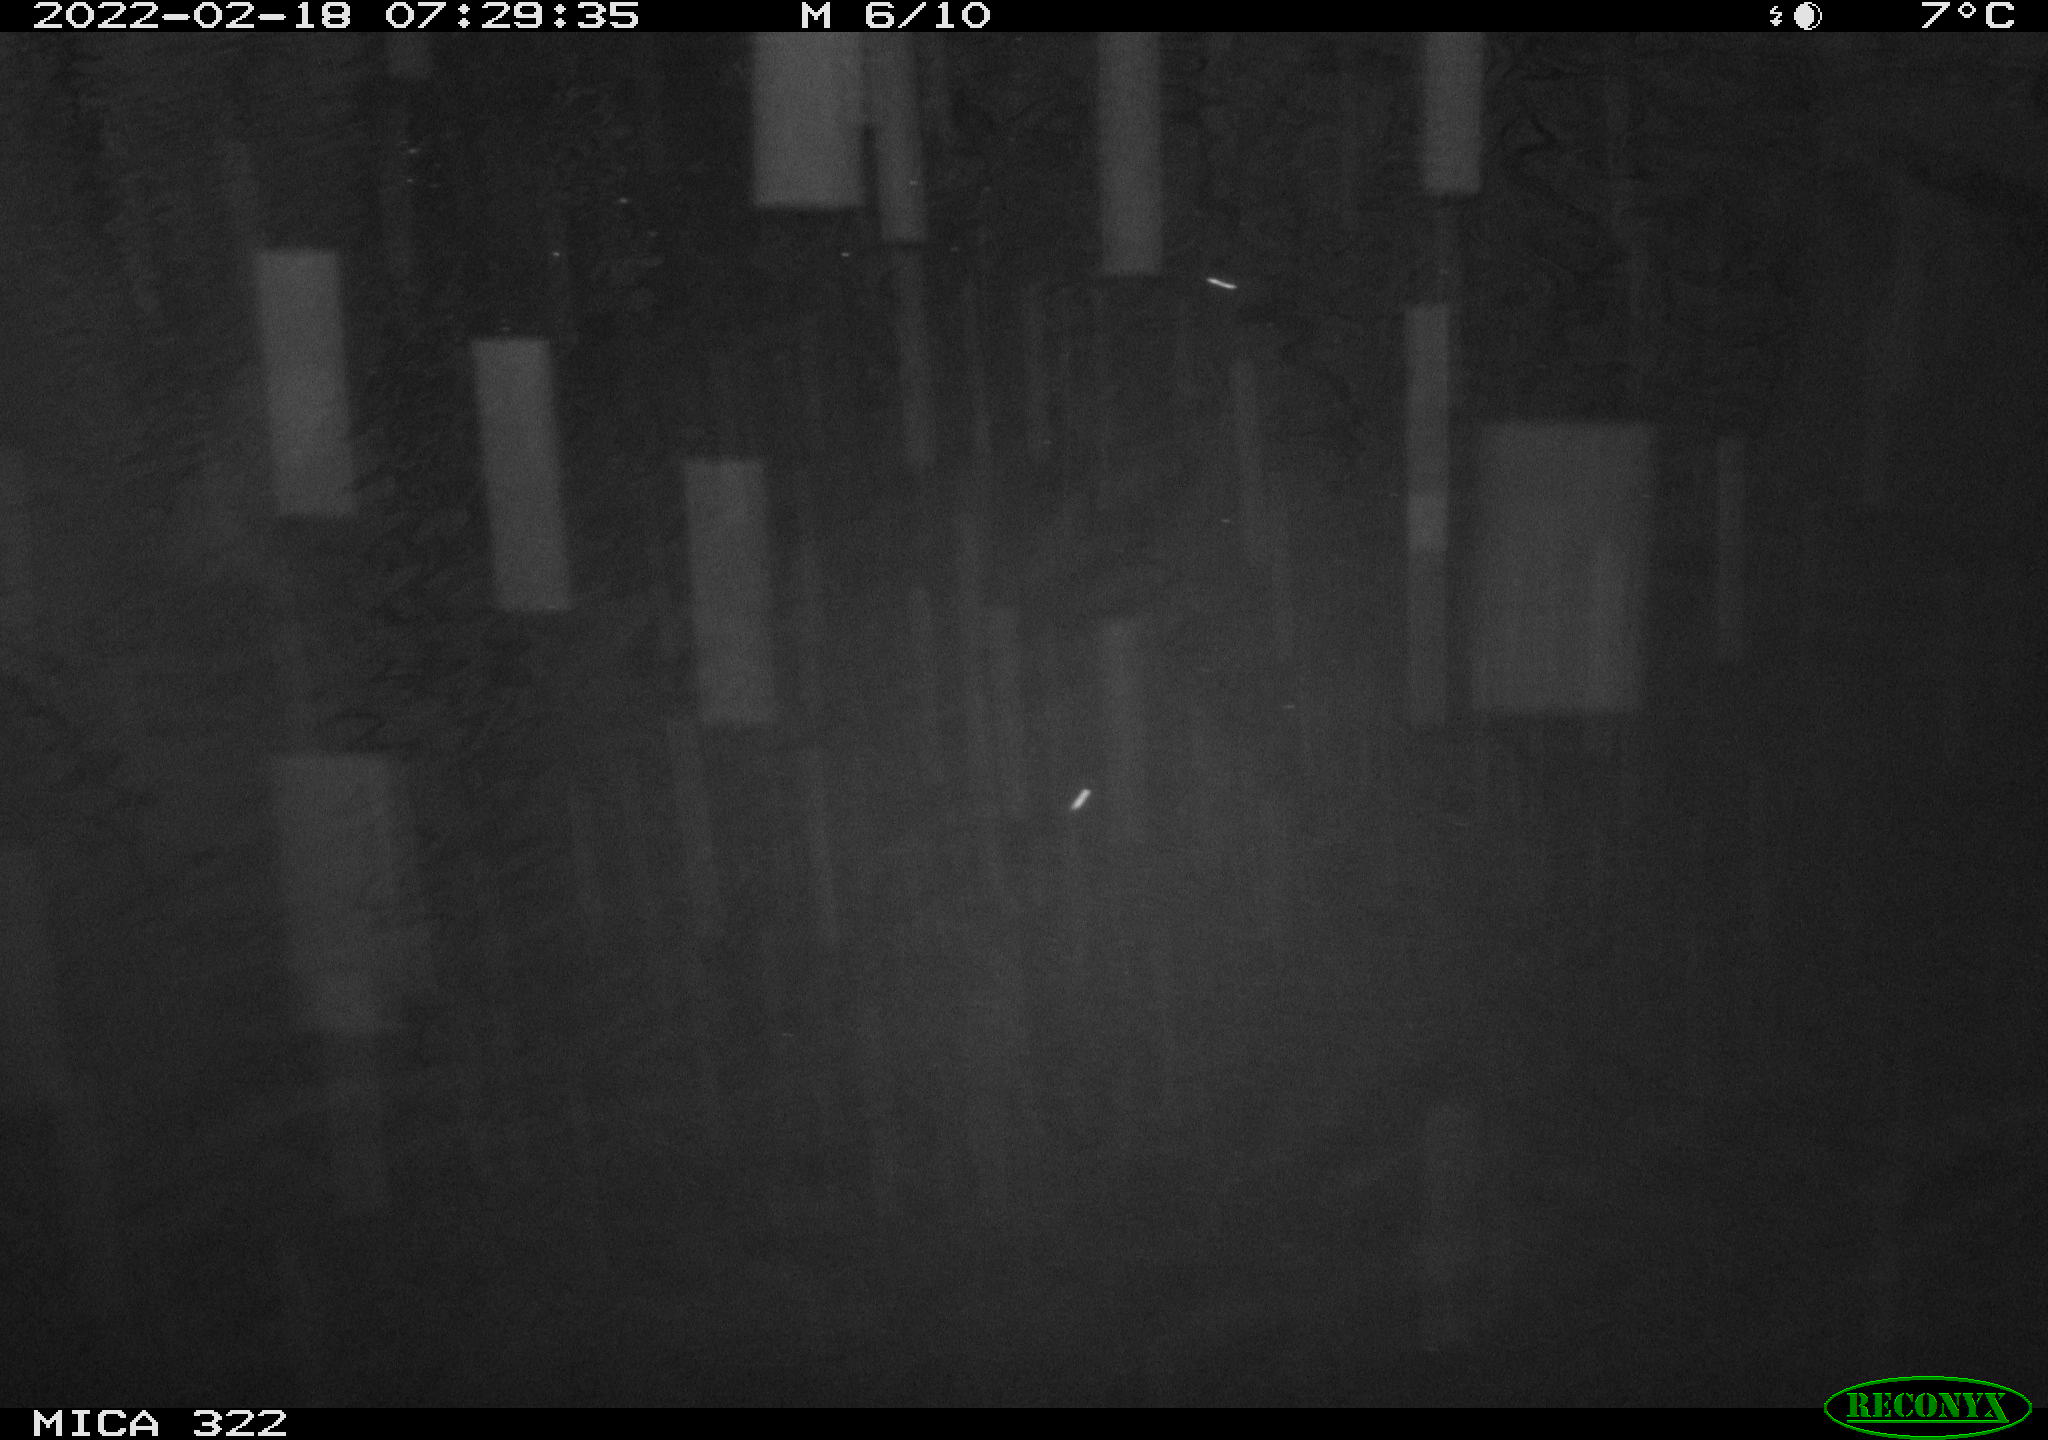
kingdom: Animalia
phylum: Chordata
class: Aves
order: Gruiformes
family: Rallidae
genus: Gallinula
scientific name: Gallinula chloropus
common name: Common moorhen
